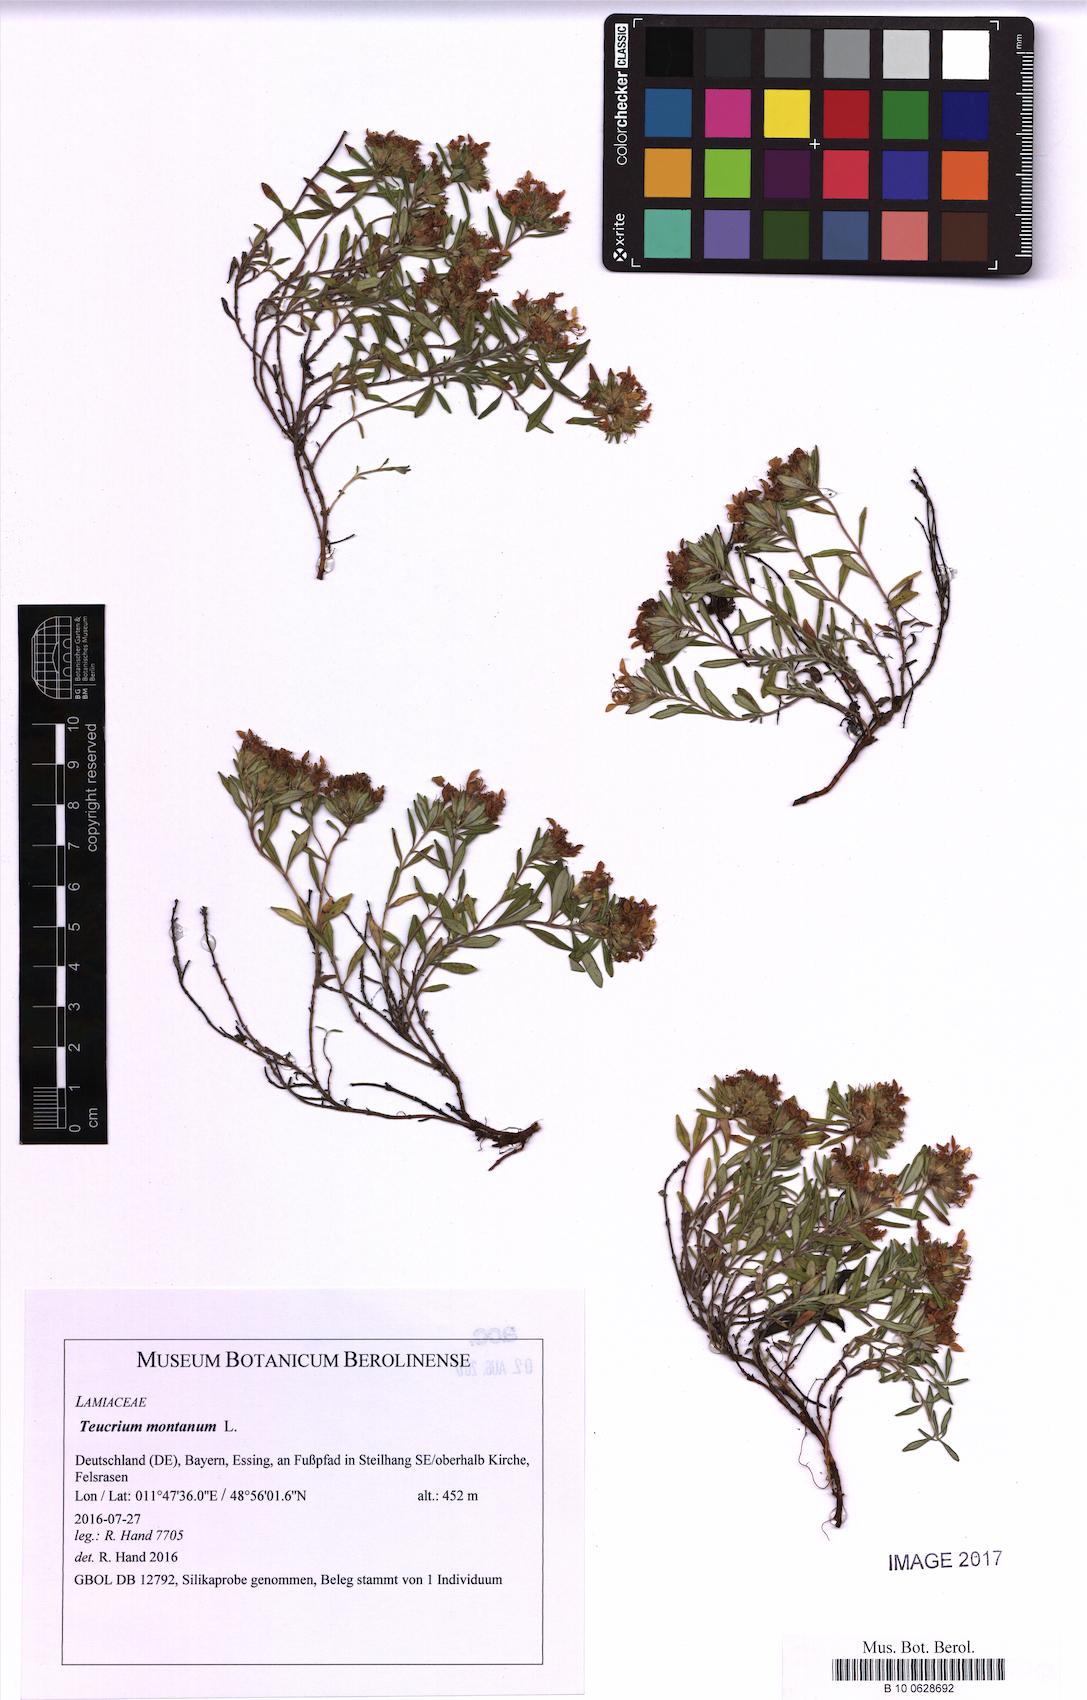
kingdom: Plantae
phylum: Tracheophyta
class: Magnoliopsida
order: Lamiales
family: Lamiaceae
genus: Teucrium
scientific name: Teucrium montanum
